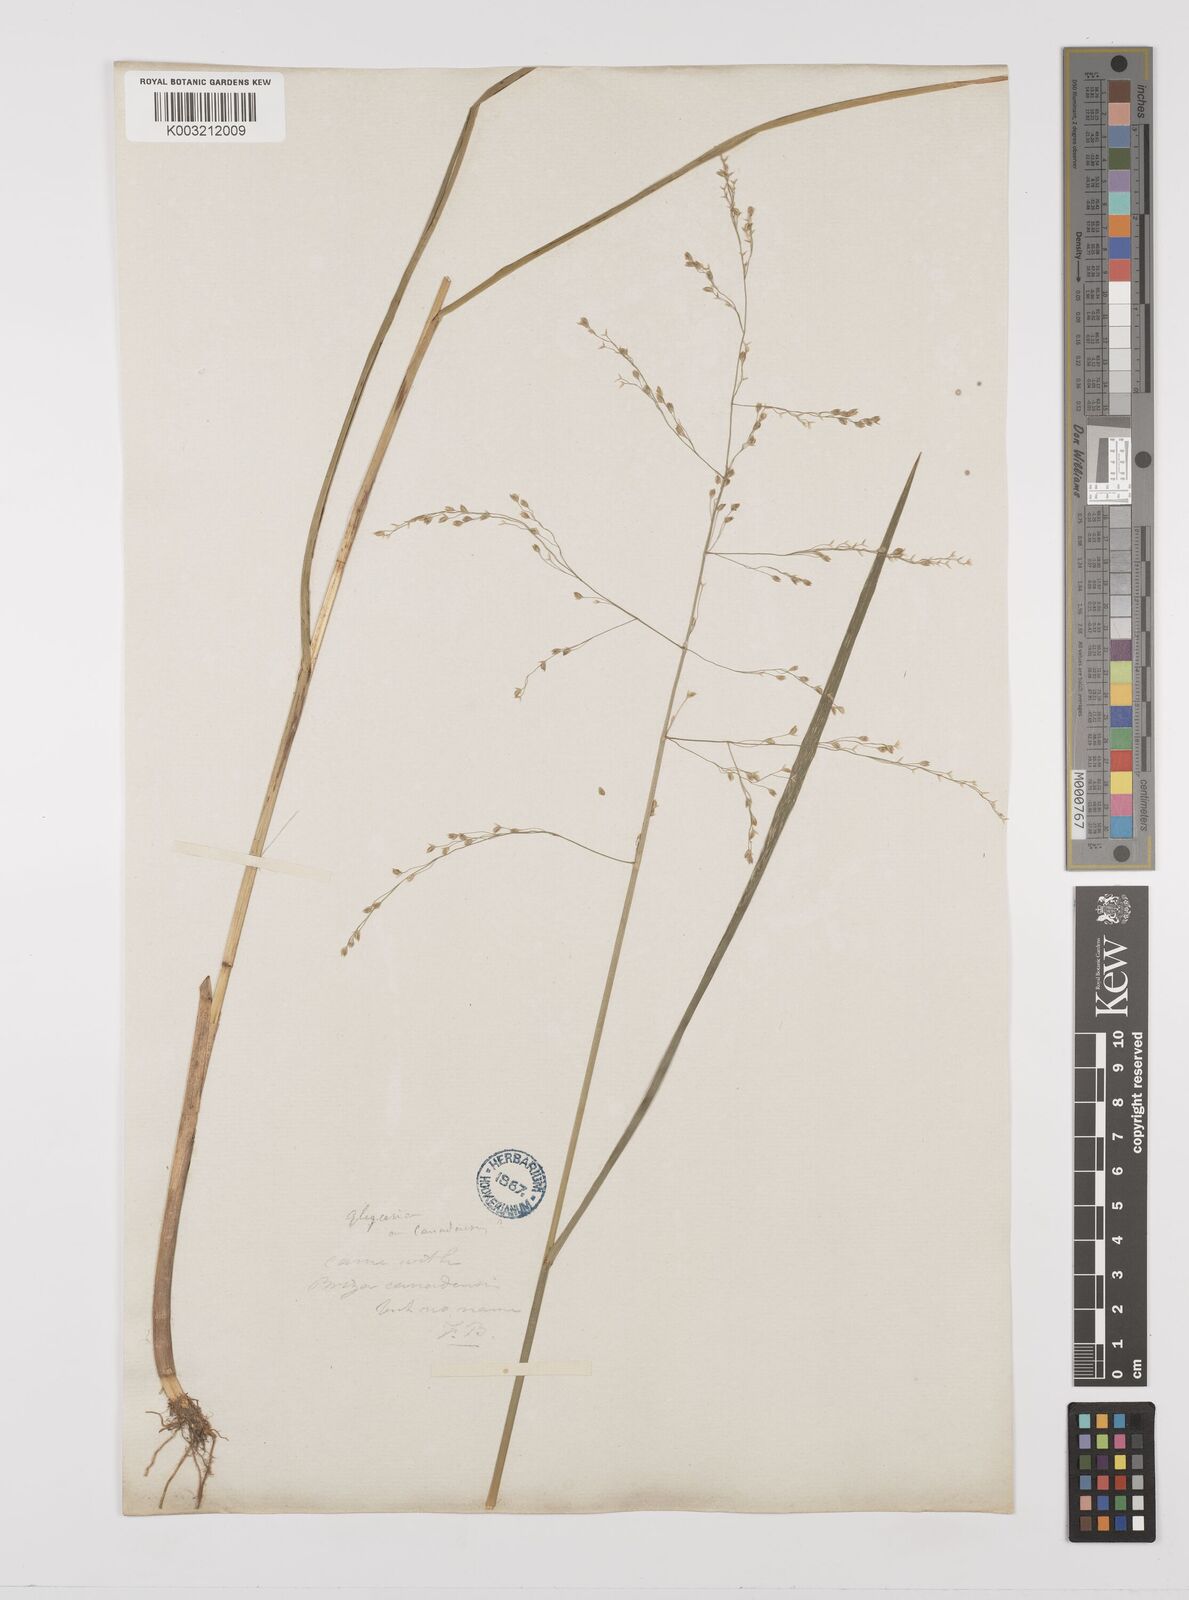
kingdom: Plantae
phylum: Tracheophyta
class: Liliopsida
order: Poales
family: Poaceae
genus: Glyceria
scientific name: Glyceria canadensis
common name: Canada mannagrass
